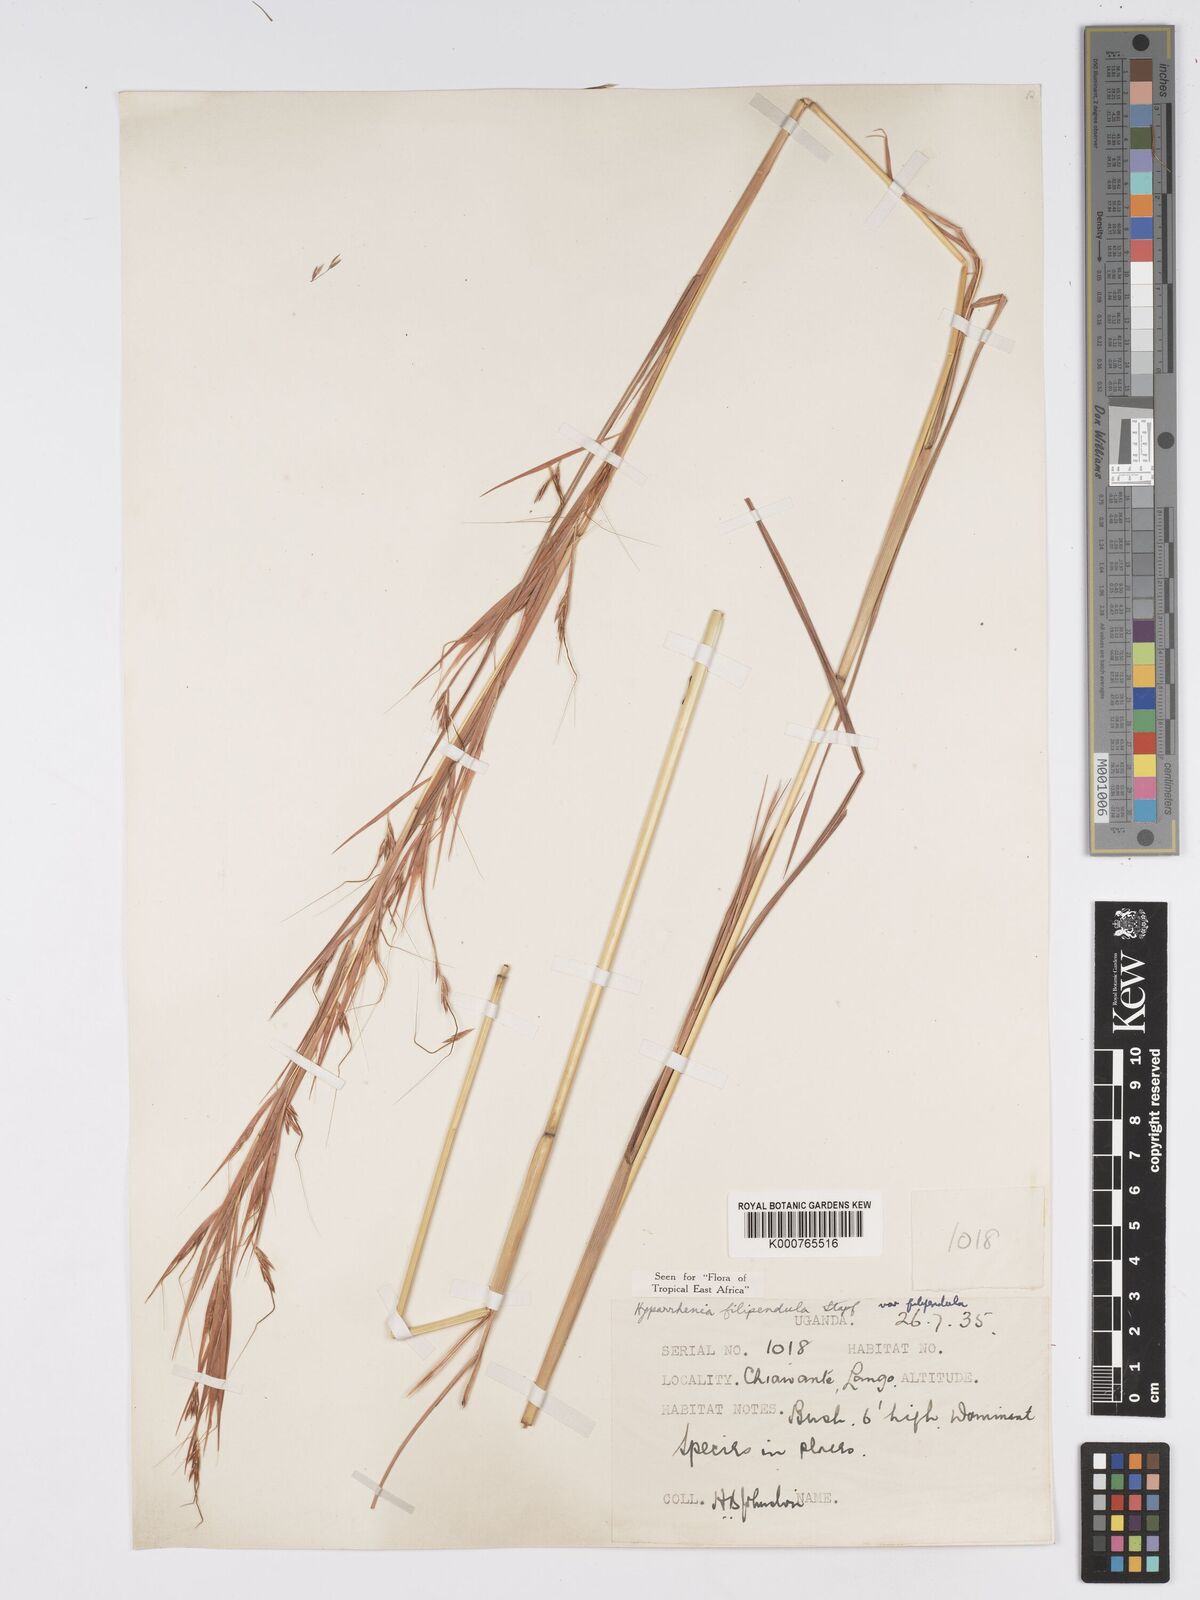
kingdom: Plantae
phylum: Tracheophyta
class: Liliopsida
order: Poales
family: Poaceae
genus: Hyparrhenia
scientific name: Hyparrhenia filipendula
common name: Tambookie grass
